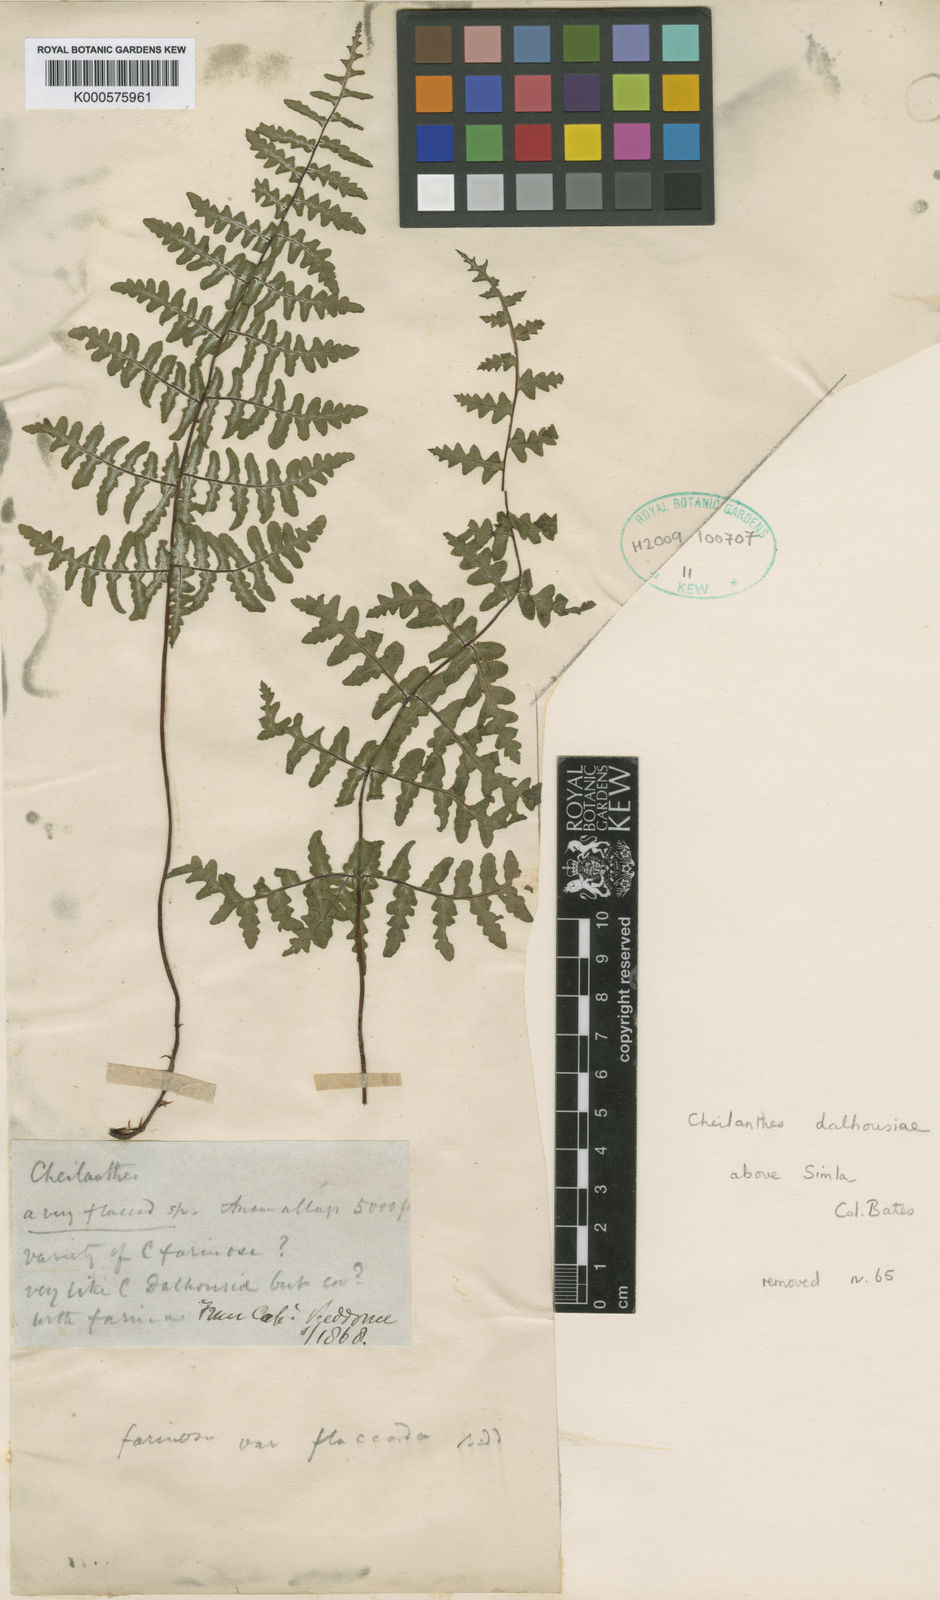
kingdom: Plantae
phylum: Tracheophyta
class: Polypodiopsida
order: Polypodiales
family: Pteridaceae
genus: Aleuritopteris
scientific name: Aleuritopteris bullosa
